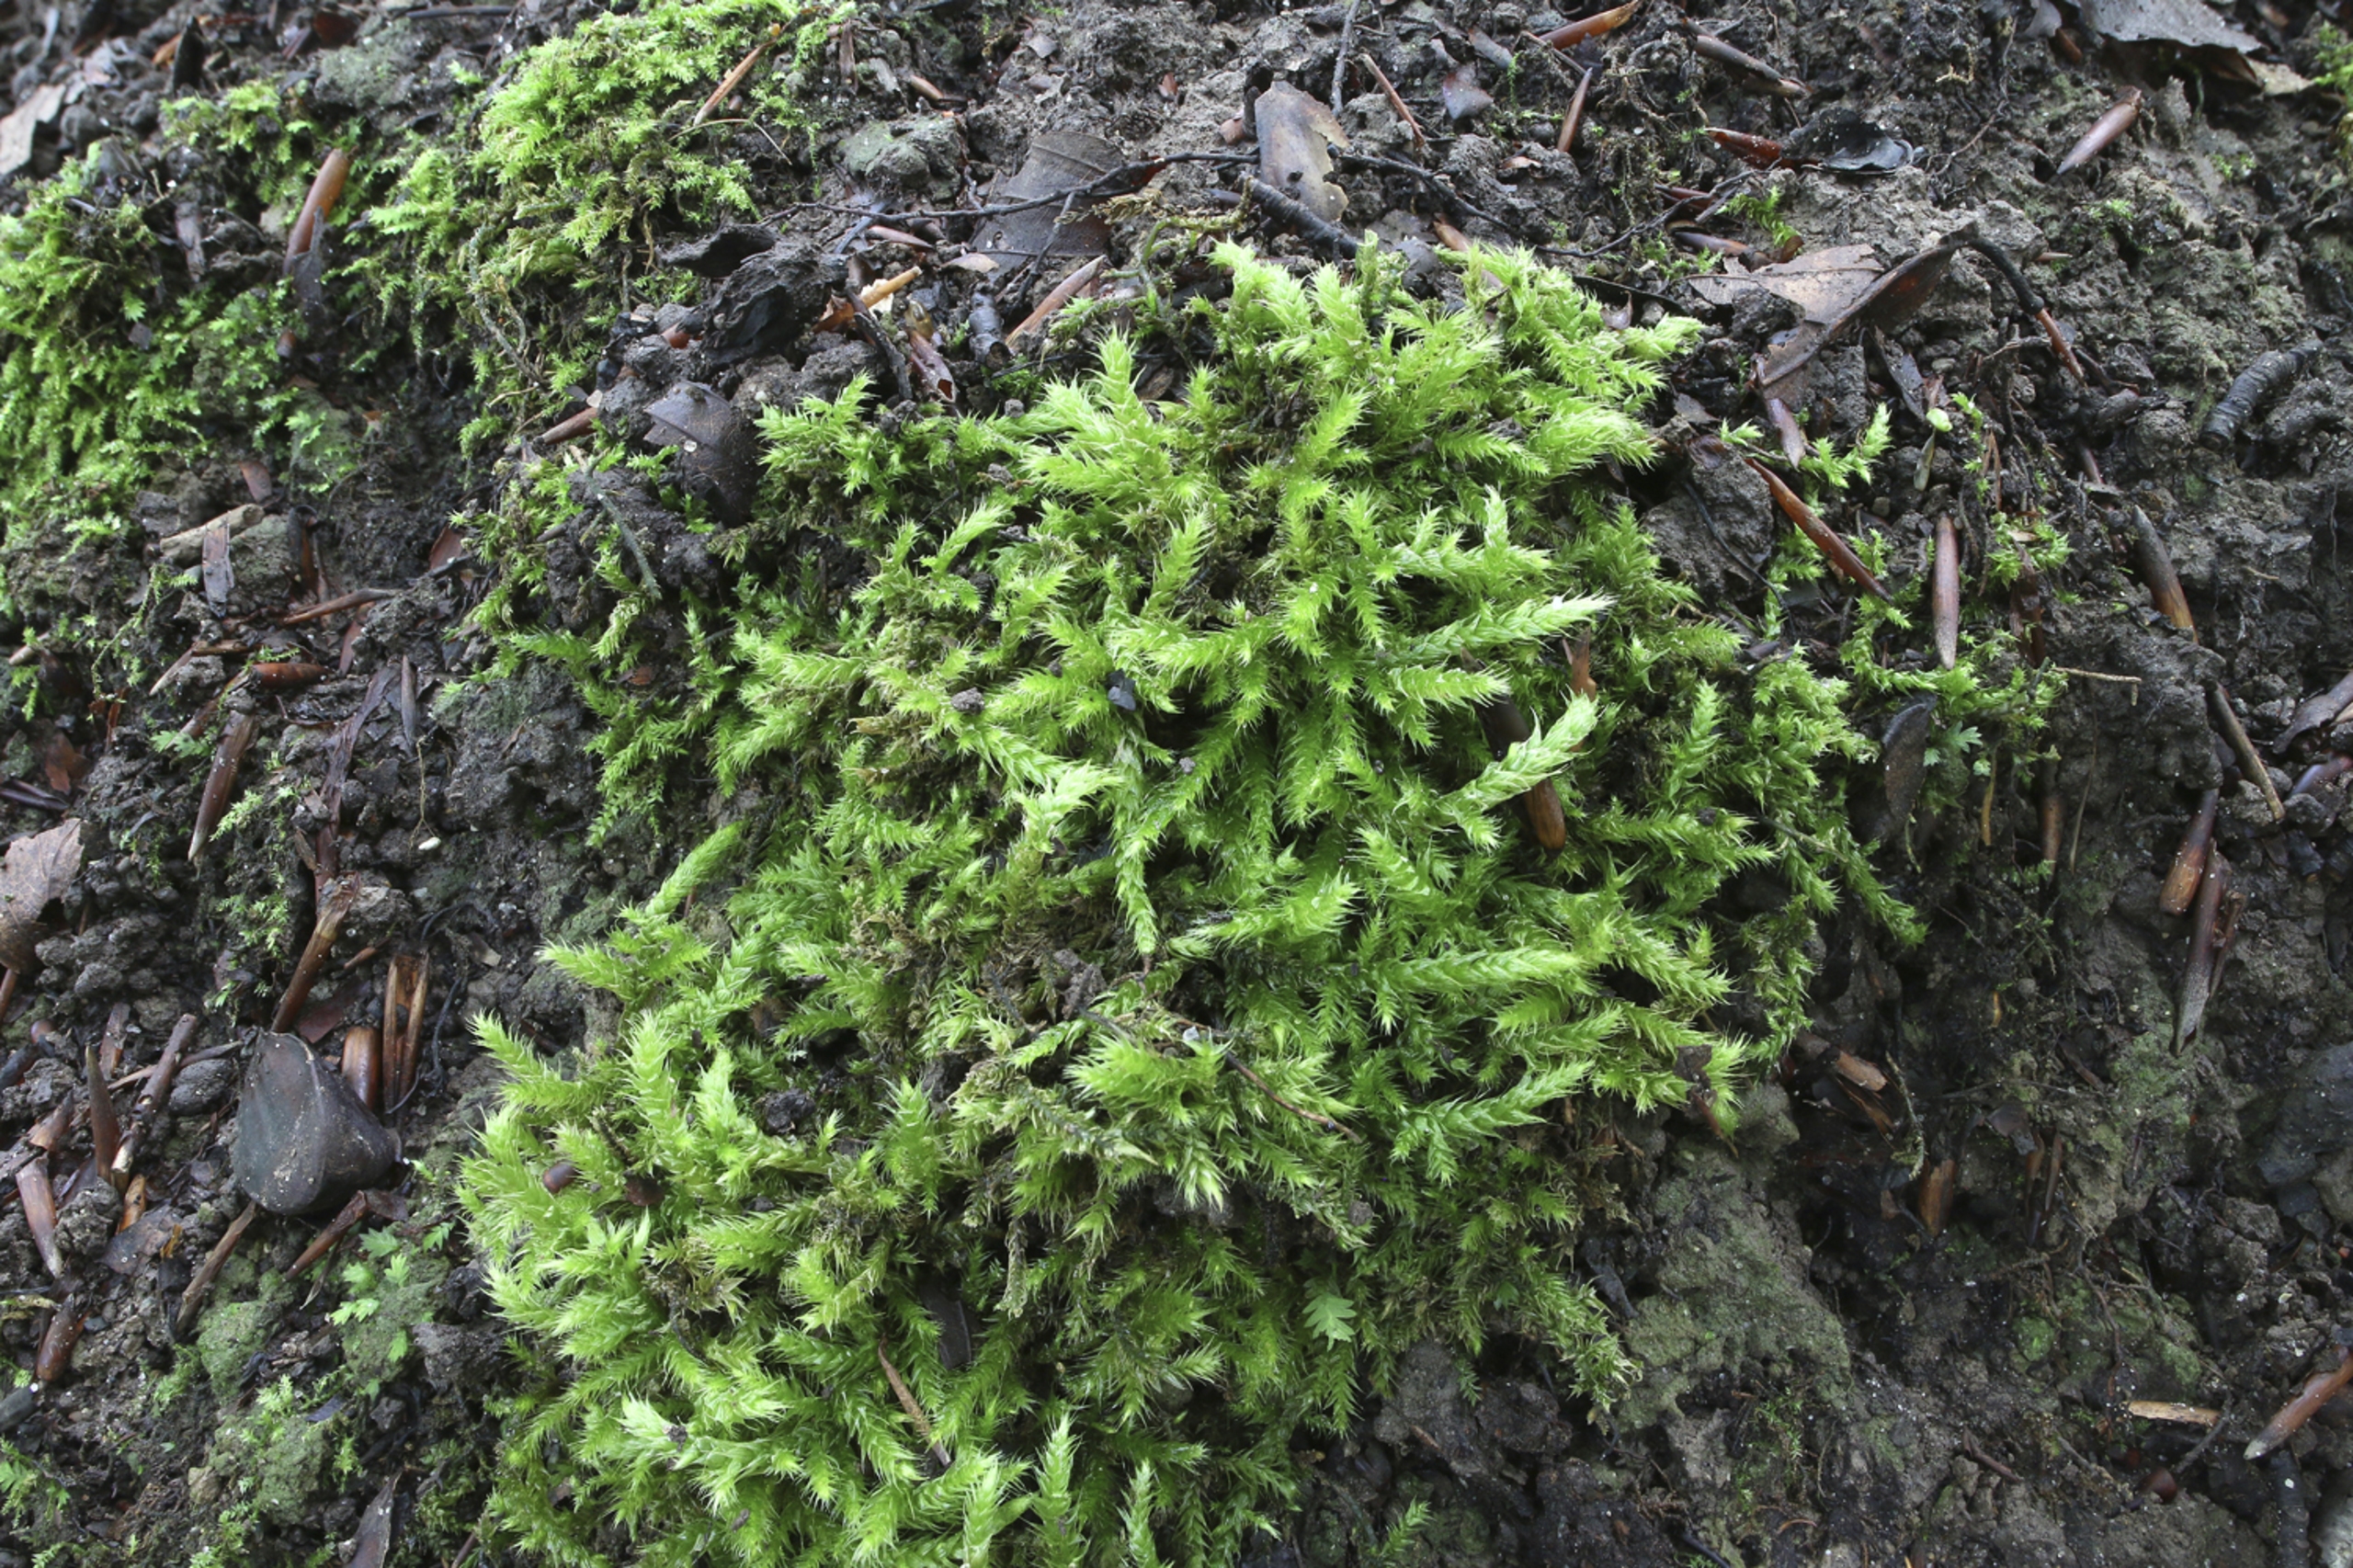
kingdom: Plantae
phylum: Bryophyta
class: Bryopsida
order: Hypnales
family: Brachytheciaceae
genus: Brachythecium
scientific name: Brachythecium glareosum
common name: Kalk-kortkapsel
